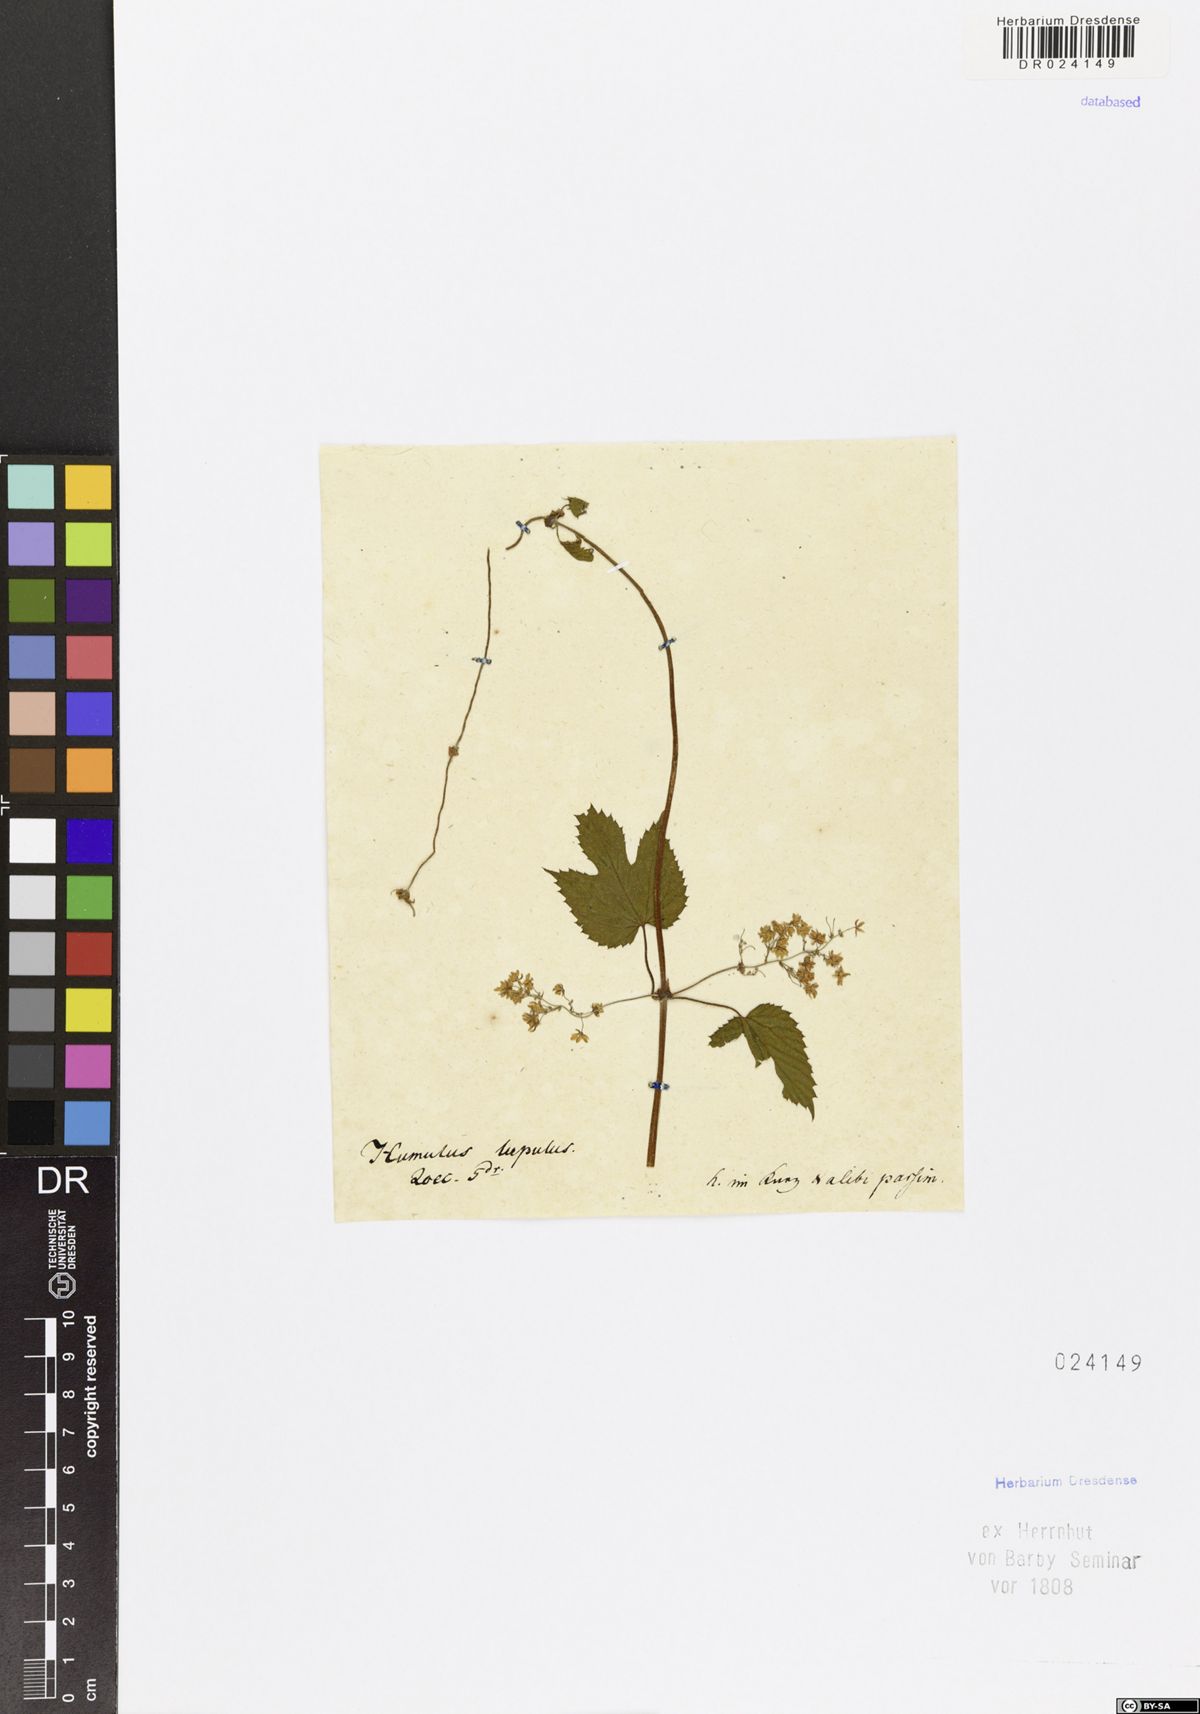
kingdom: Plantae
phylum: Tracheophyta
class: Magnoliopsida
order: Rosales
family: Cannabaceae
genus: Humulus
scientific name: Humulus lupulus
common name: Hop
